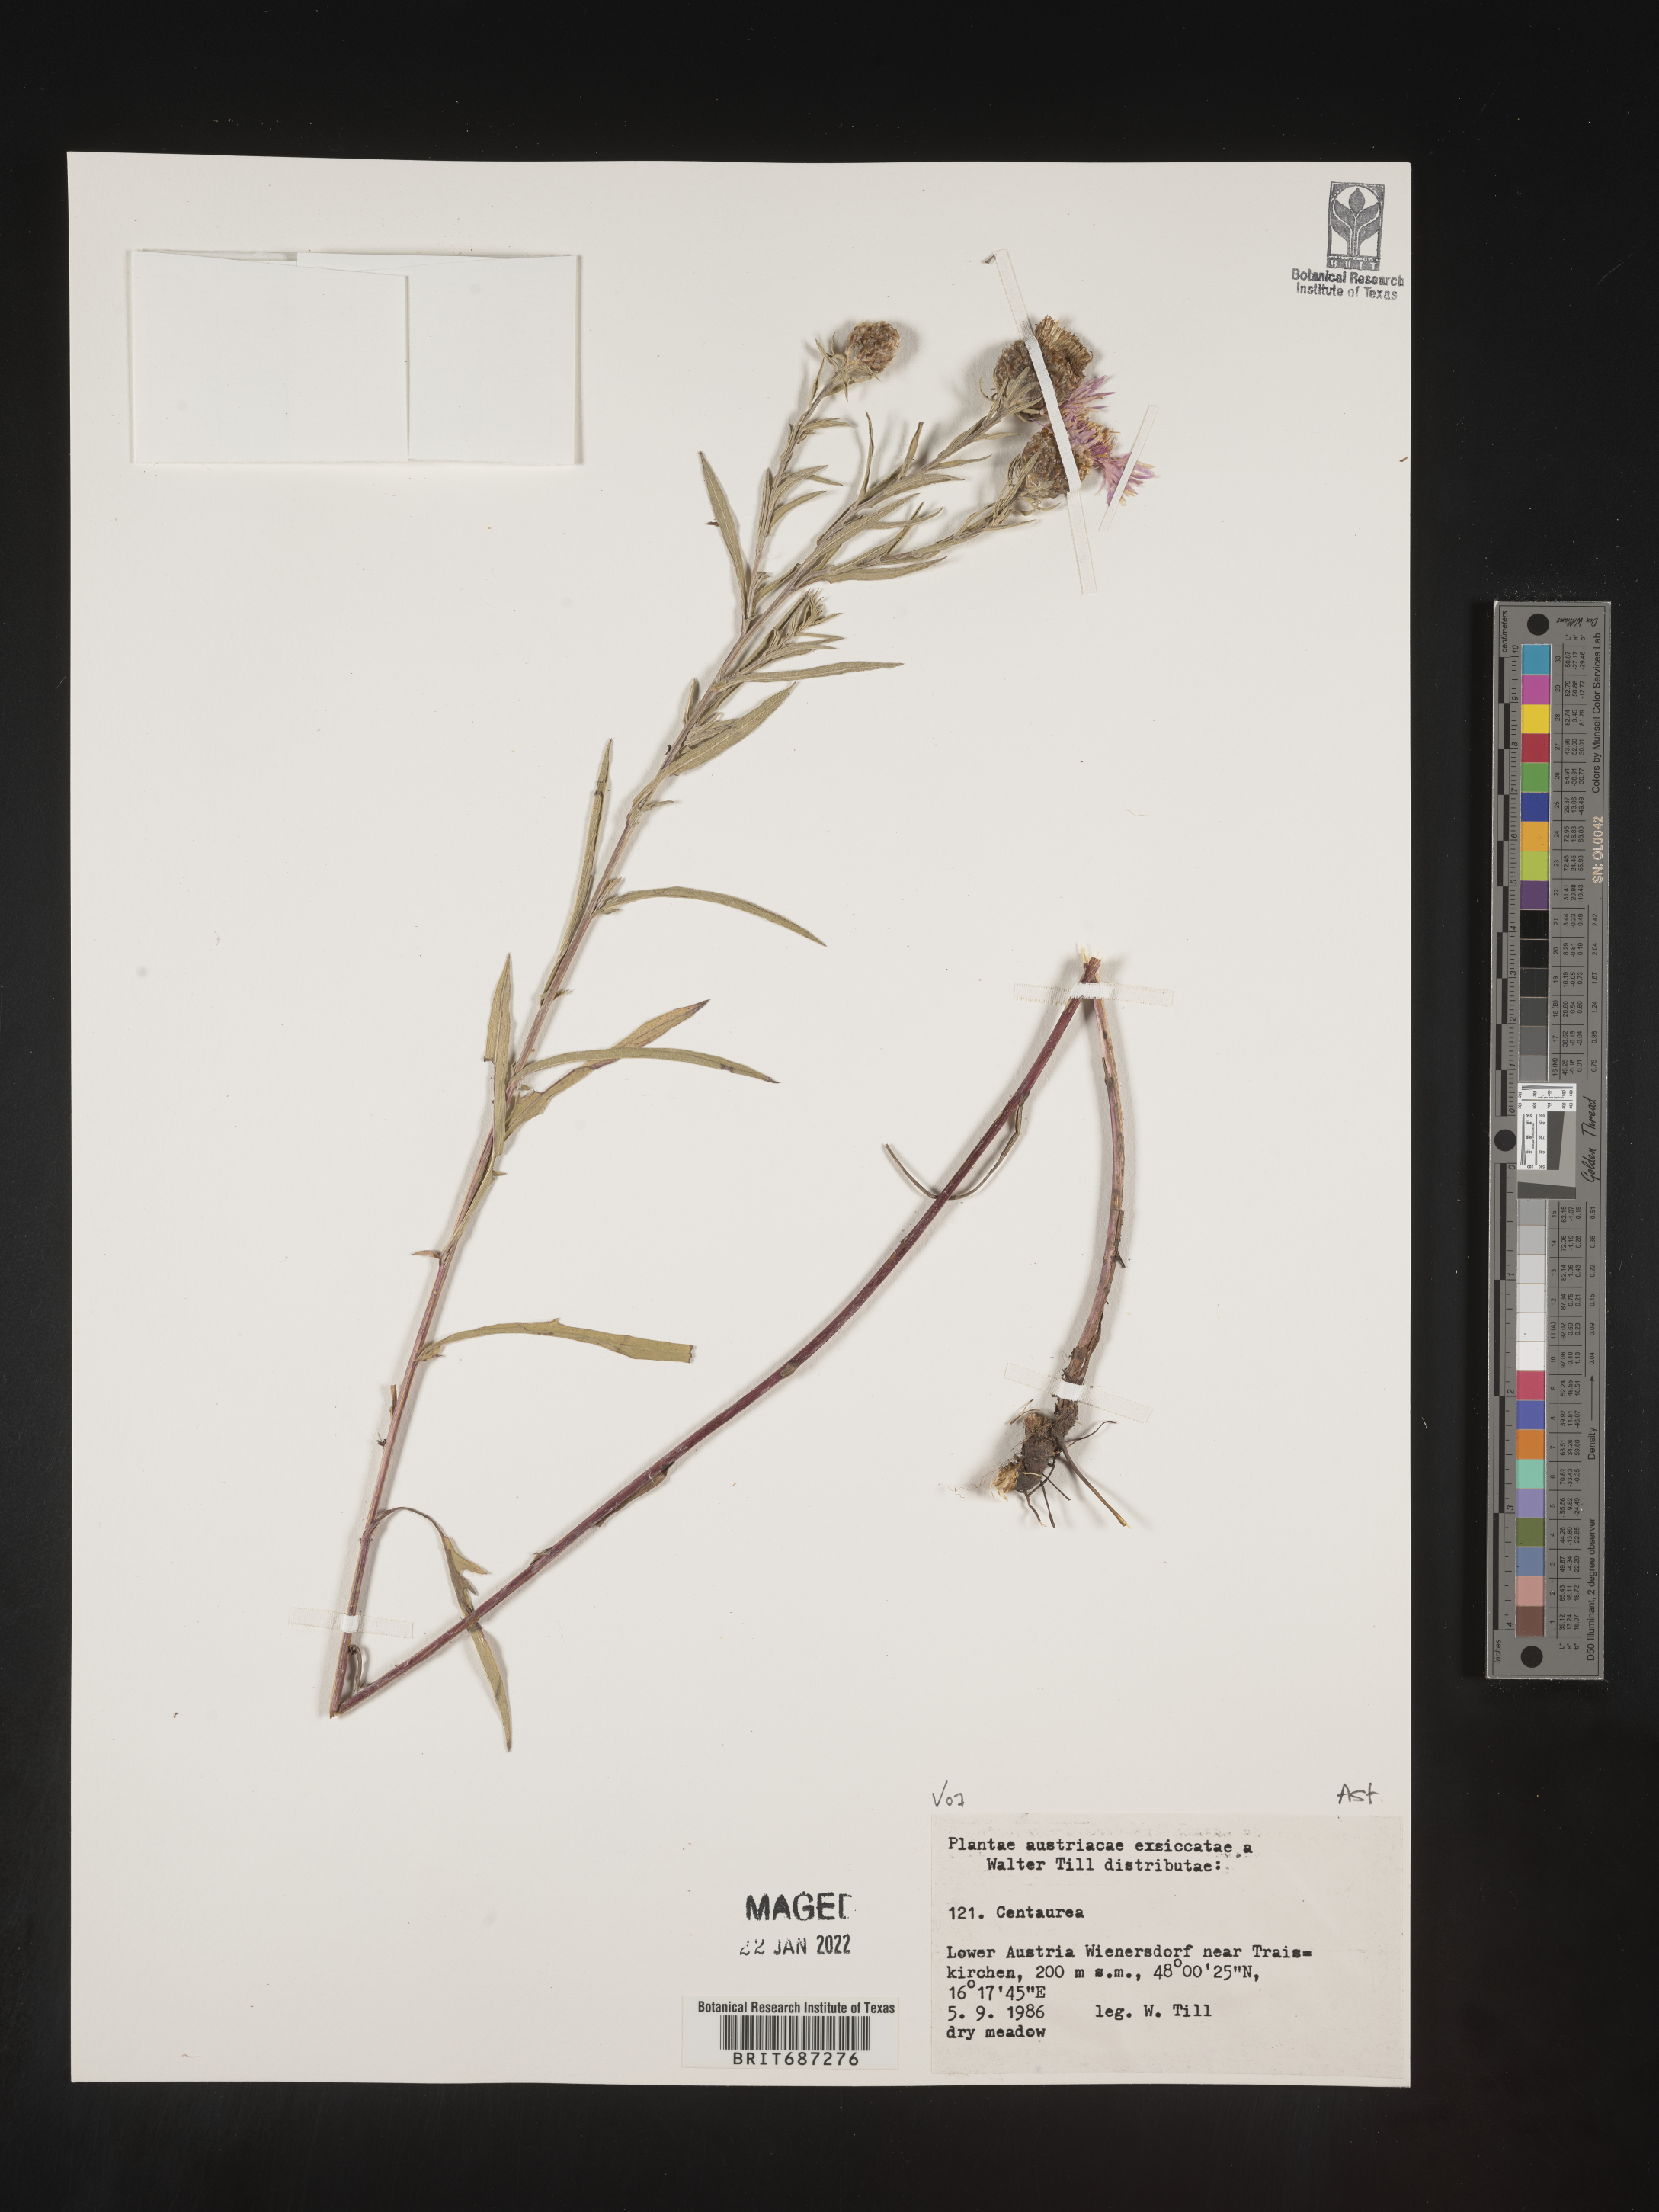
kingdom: Plantae
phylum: Tracheophyta
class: Magnoliopsida
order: Asterales
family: Asteraceae
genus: Centaurea
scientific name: Centaurea
